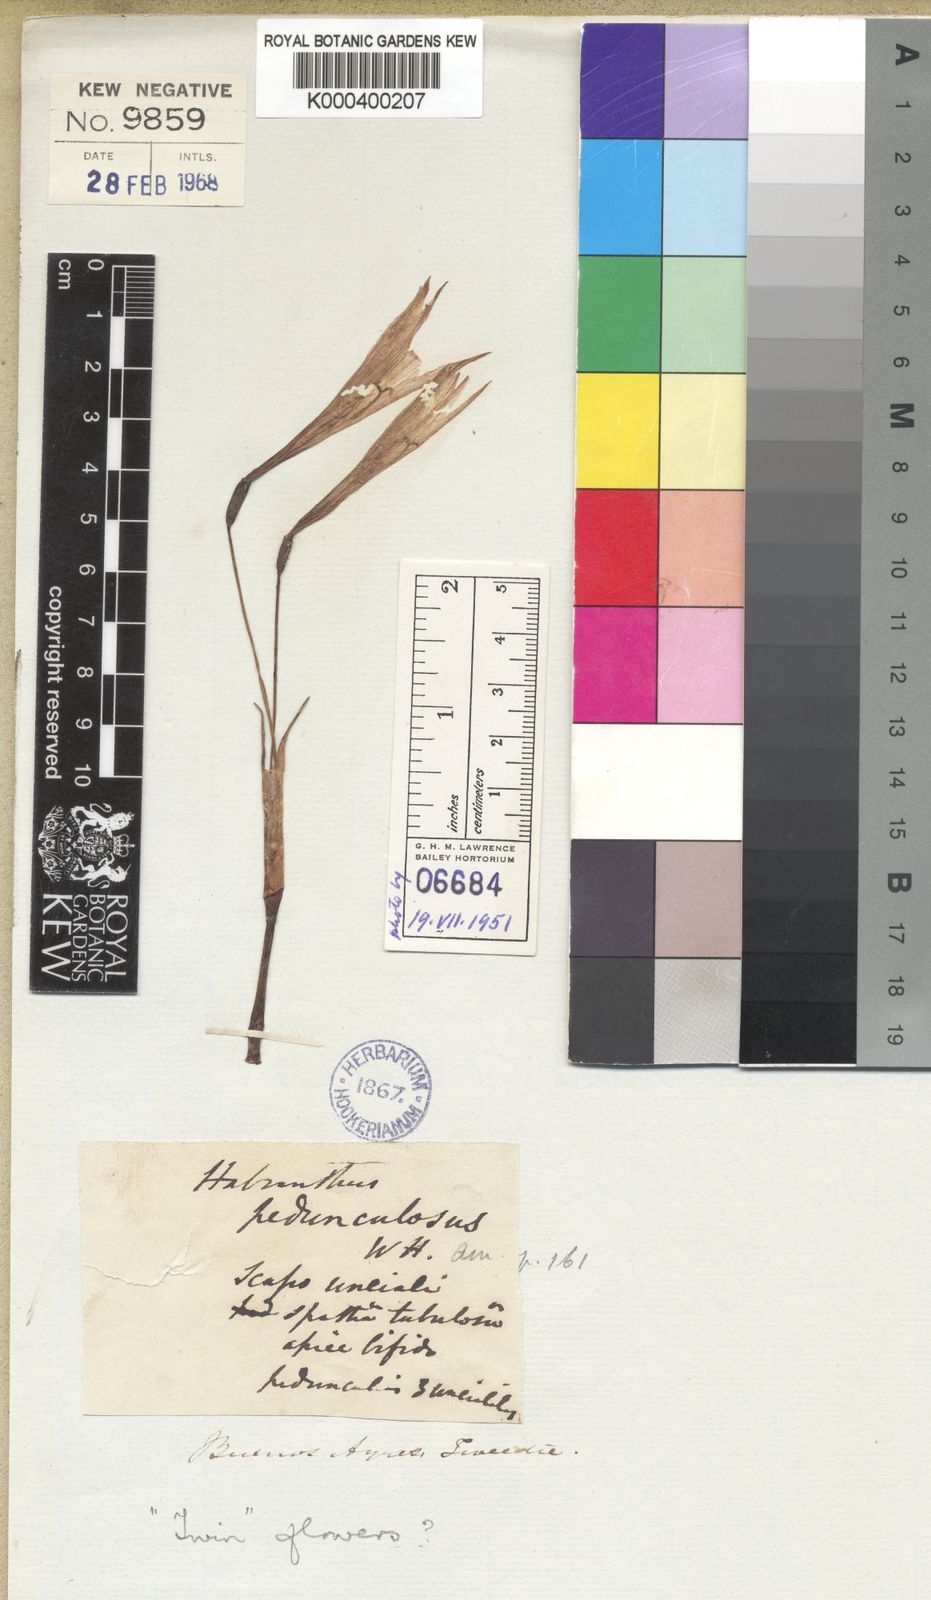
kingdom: Plantae
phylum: Tracheophyta
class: Liliopsida
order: Asparagales
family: Amaryllidaceae
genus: Zephyranthes
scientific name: Zephyranthes pedunculosa
